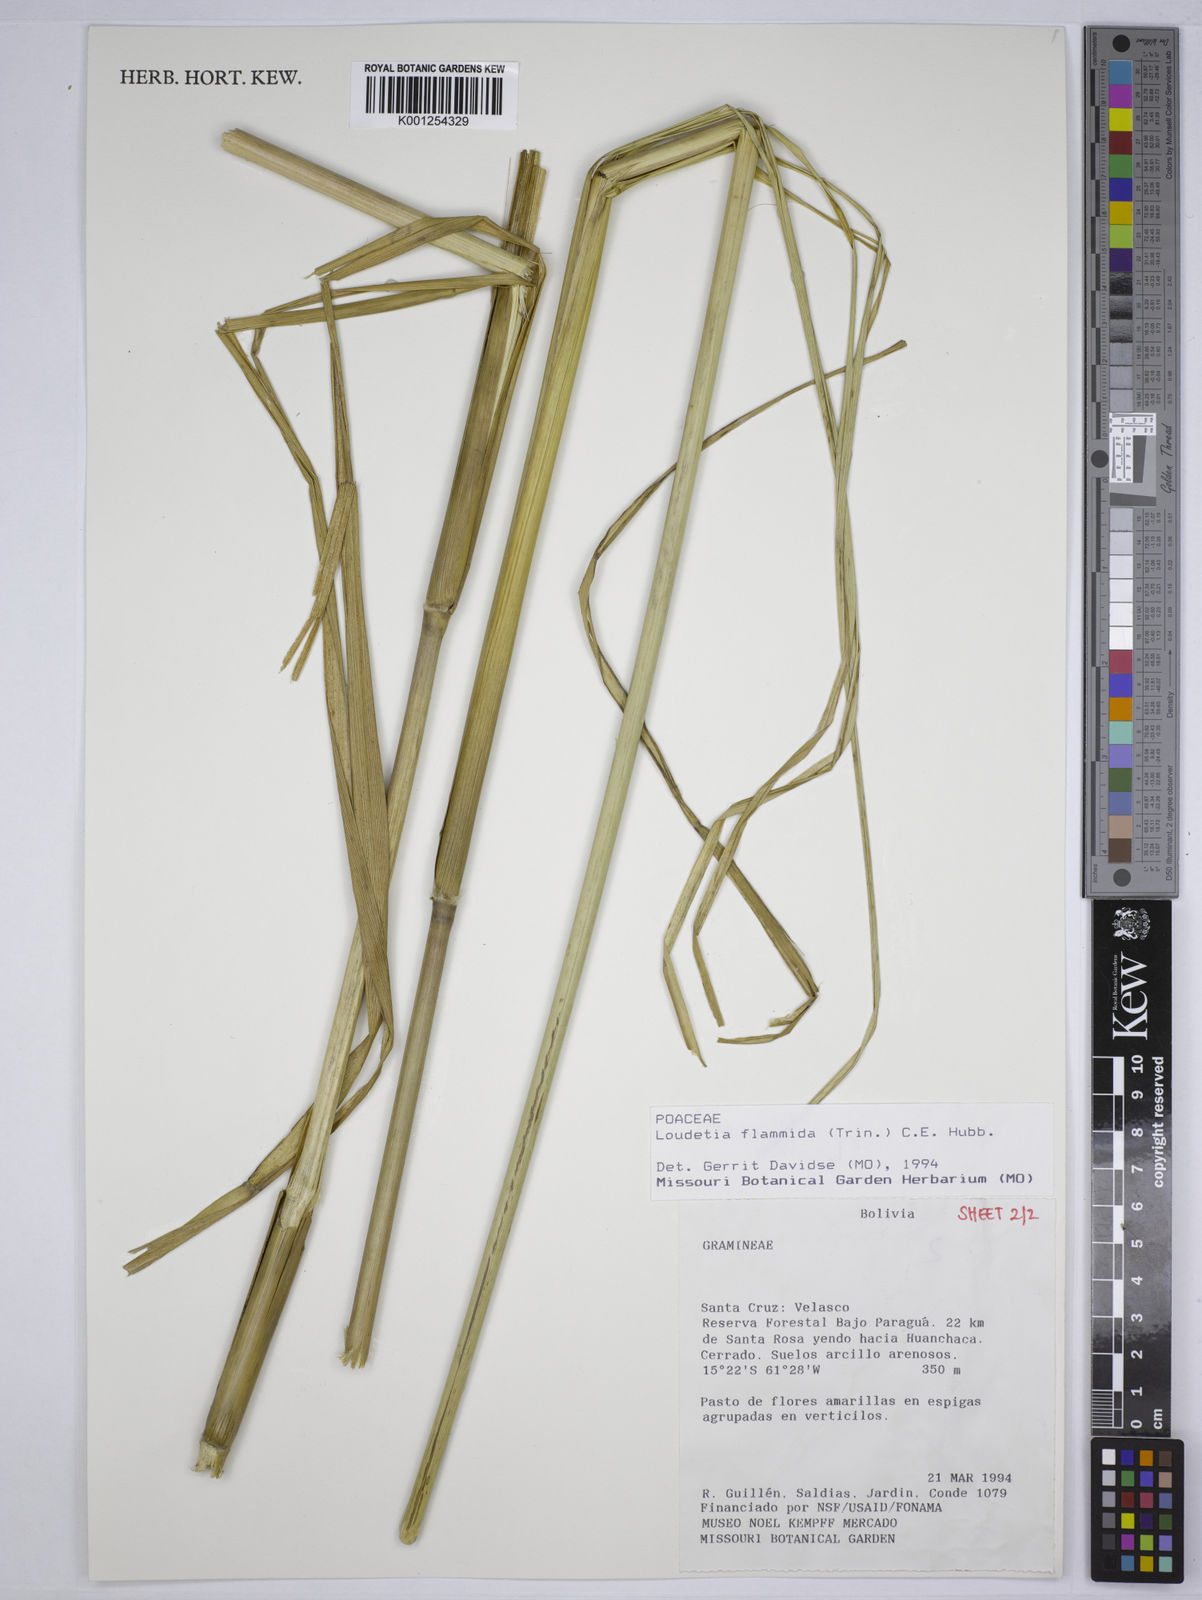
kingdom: Plantae
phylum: Tracheophyta
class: Liliopsida
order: Poales
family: Poaceae
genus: Loudetia
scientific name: Loudetia flammida
